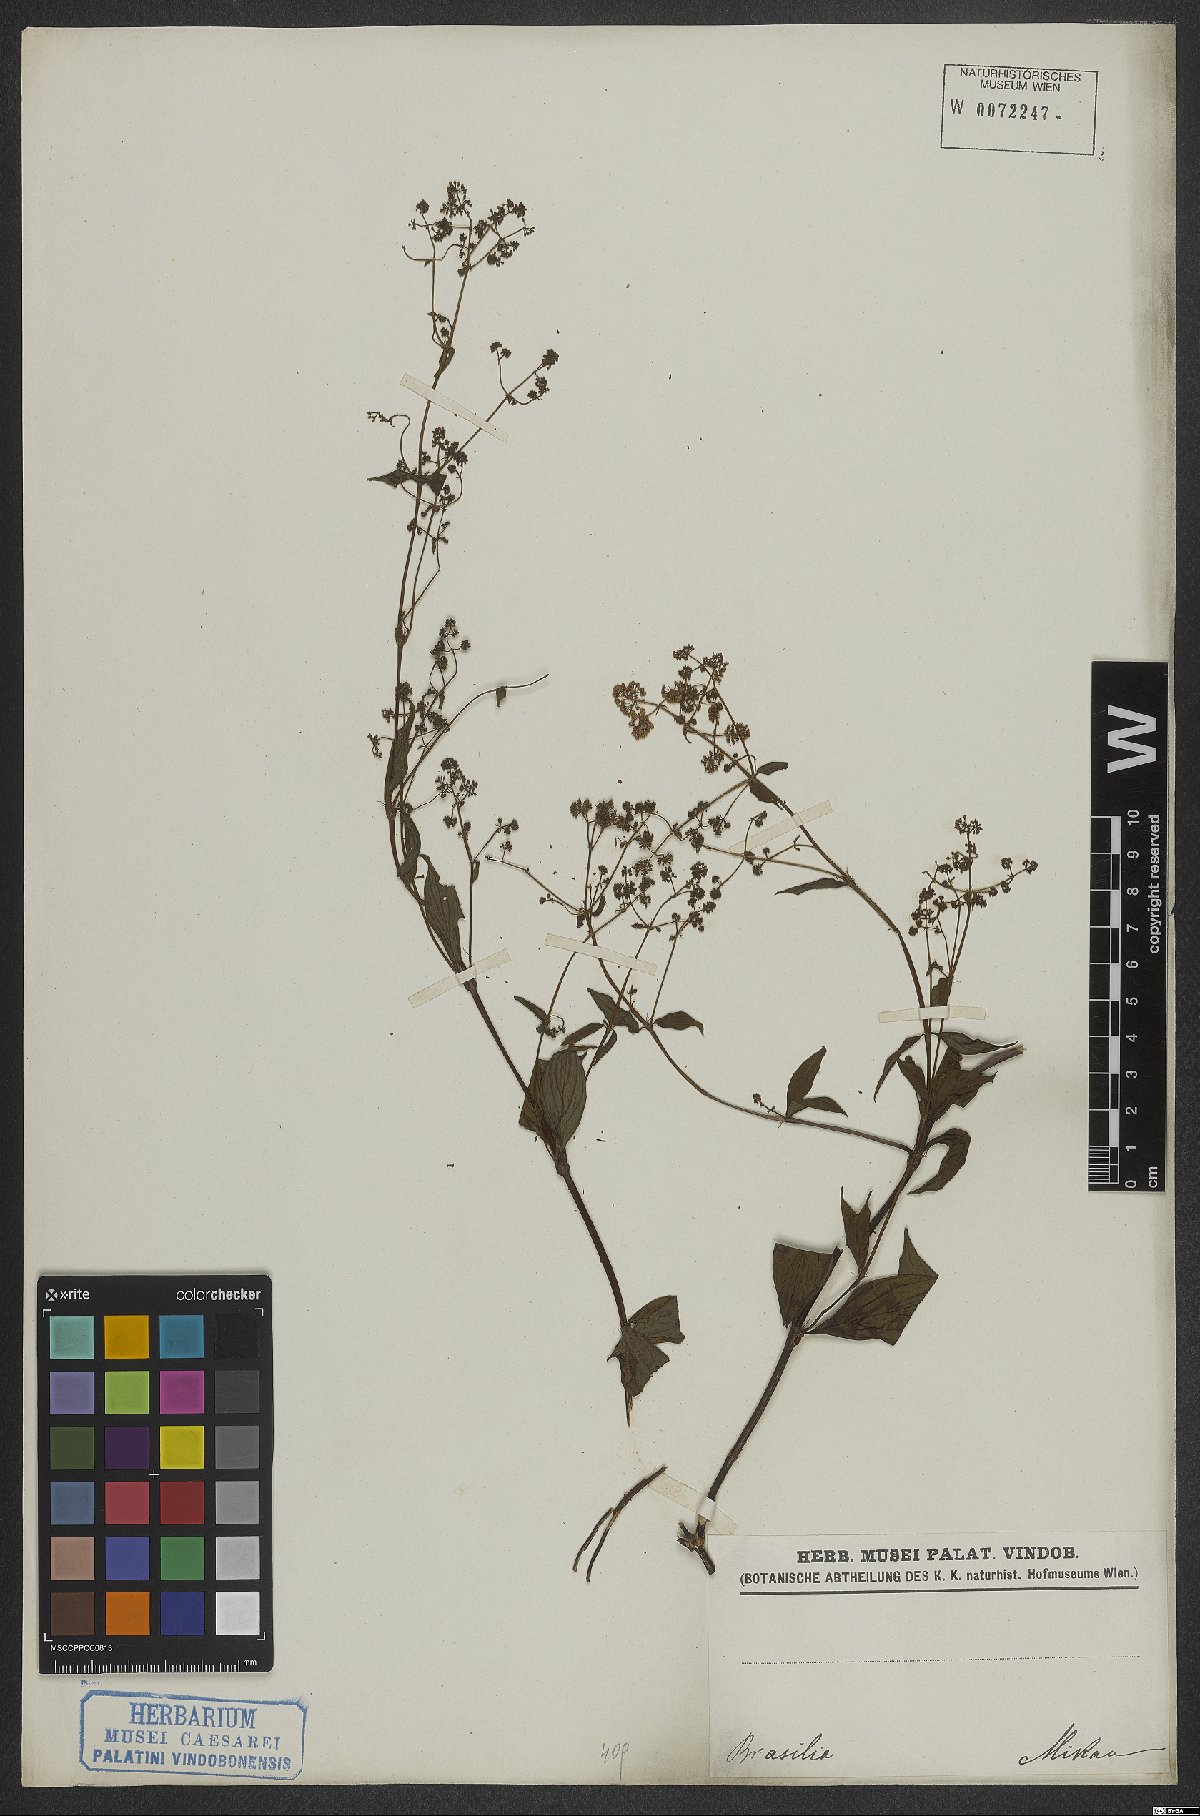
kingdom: Plantae
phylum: Tracheophyta
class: Magnoliopsida
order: Gentianales
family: Rubiaceae
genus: Emmeorhiza
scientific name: Emmeorhiza
